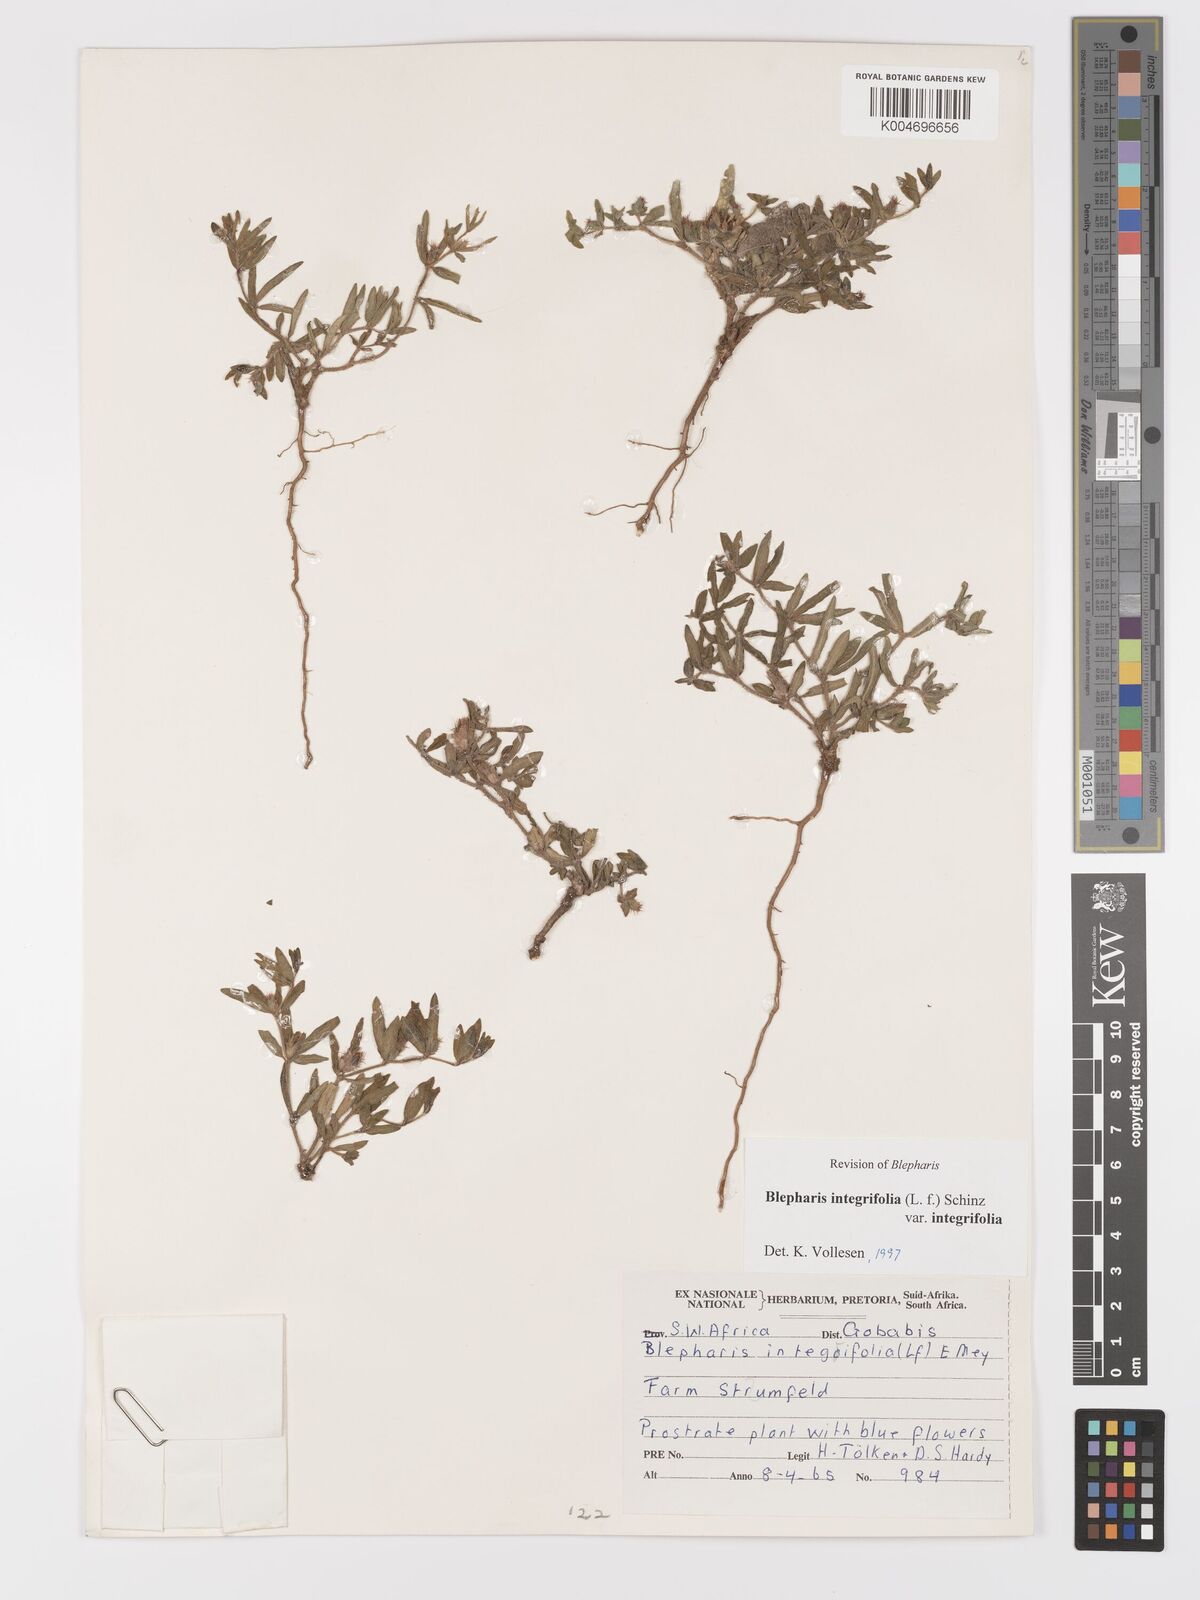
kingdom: Plantae
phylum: Tracheophyta
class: Magnoliopsida
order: Lamiales
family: Acanthaceae
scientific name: Acanthaceae
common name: Acanthaceae
